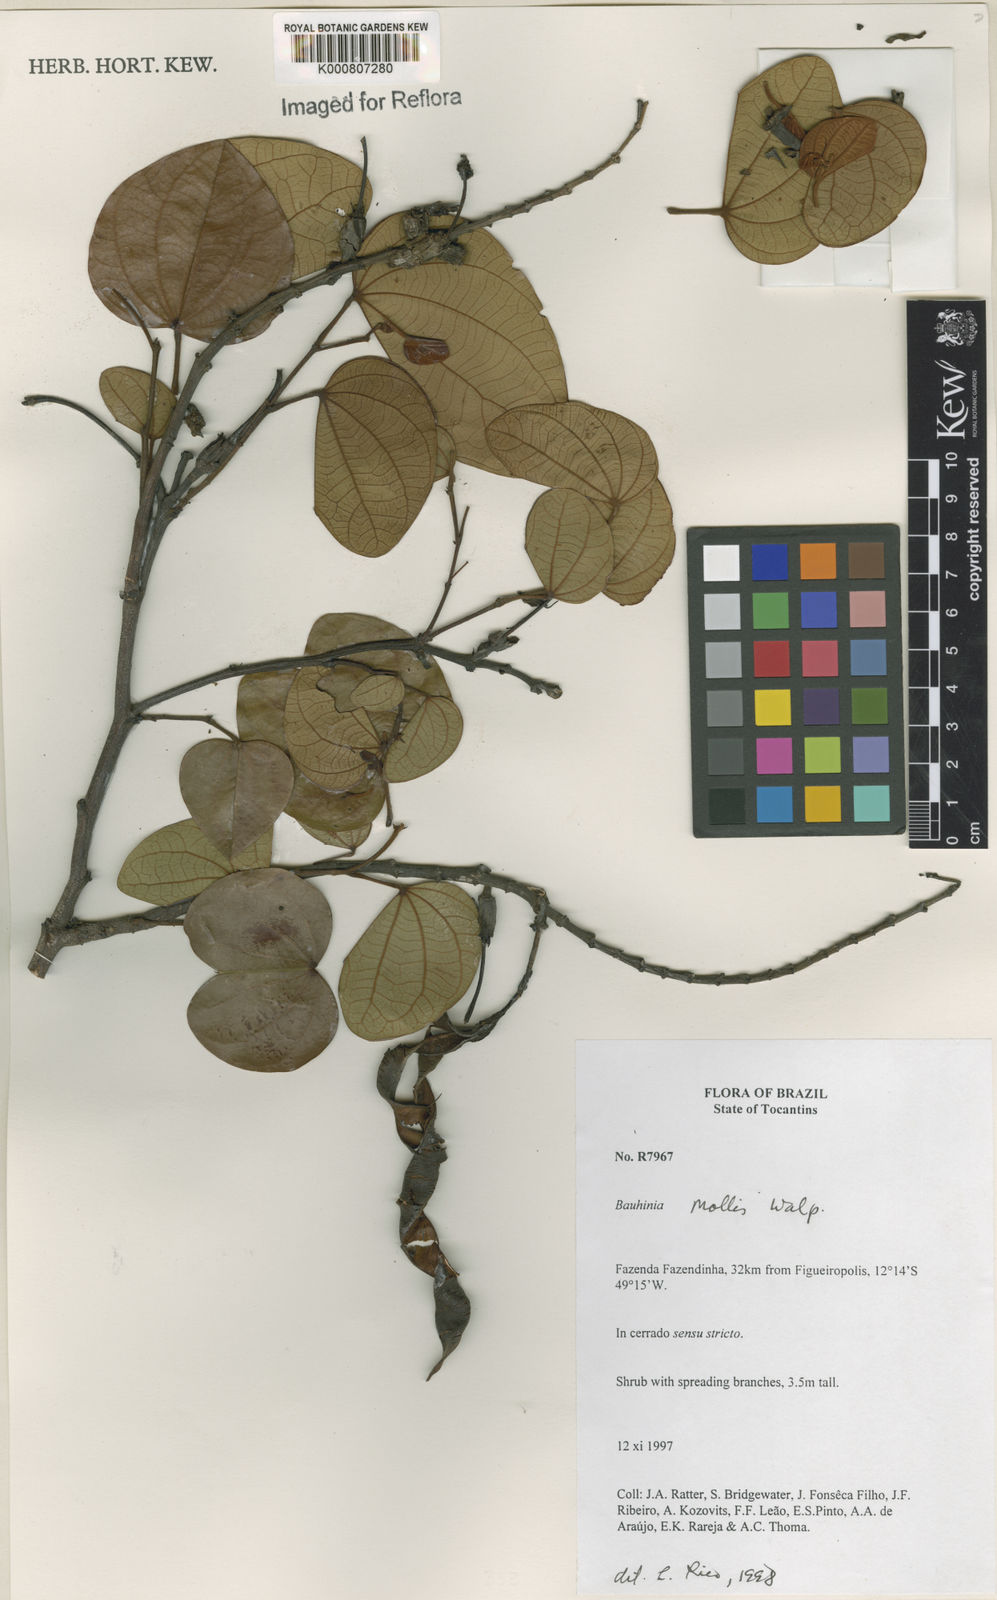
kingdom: Plantae
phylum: Tracheophyta
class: Magnoliopsida
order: Fabales
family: Fabaceae
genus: Bauhinia
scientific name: Bauhinia mollis
